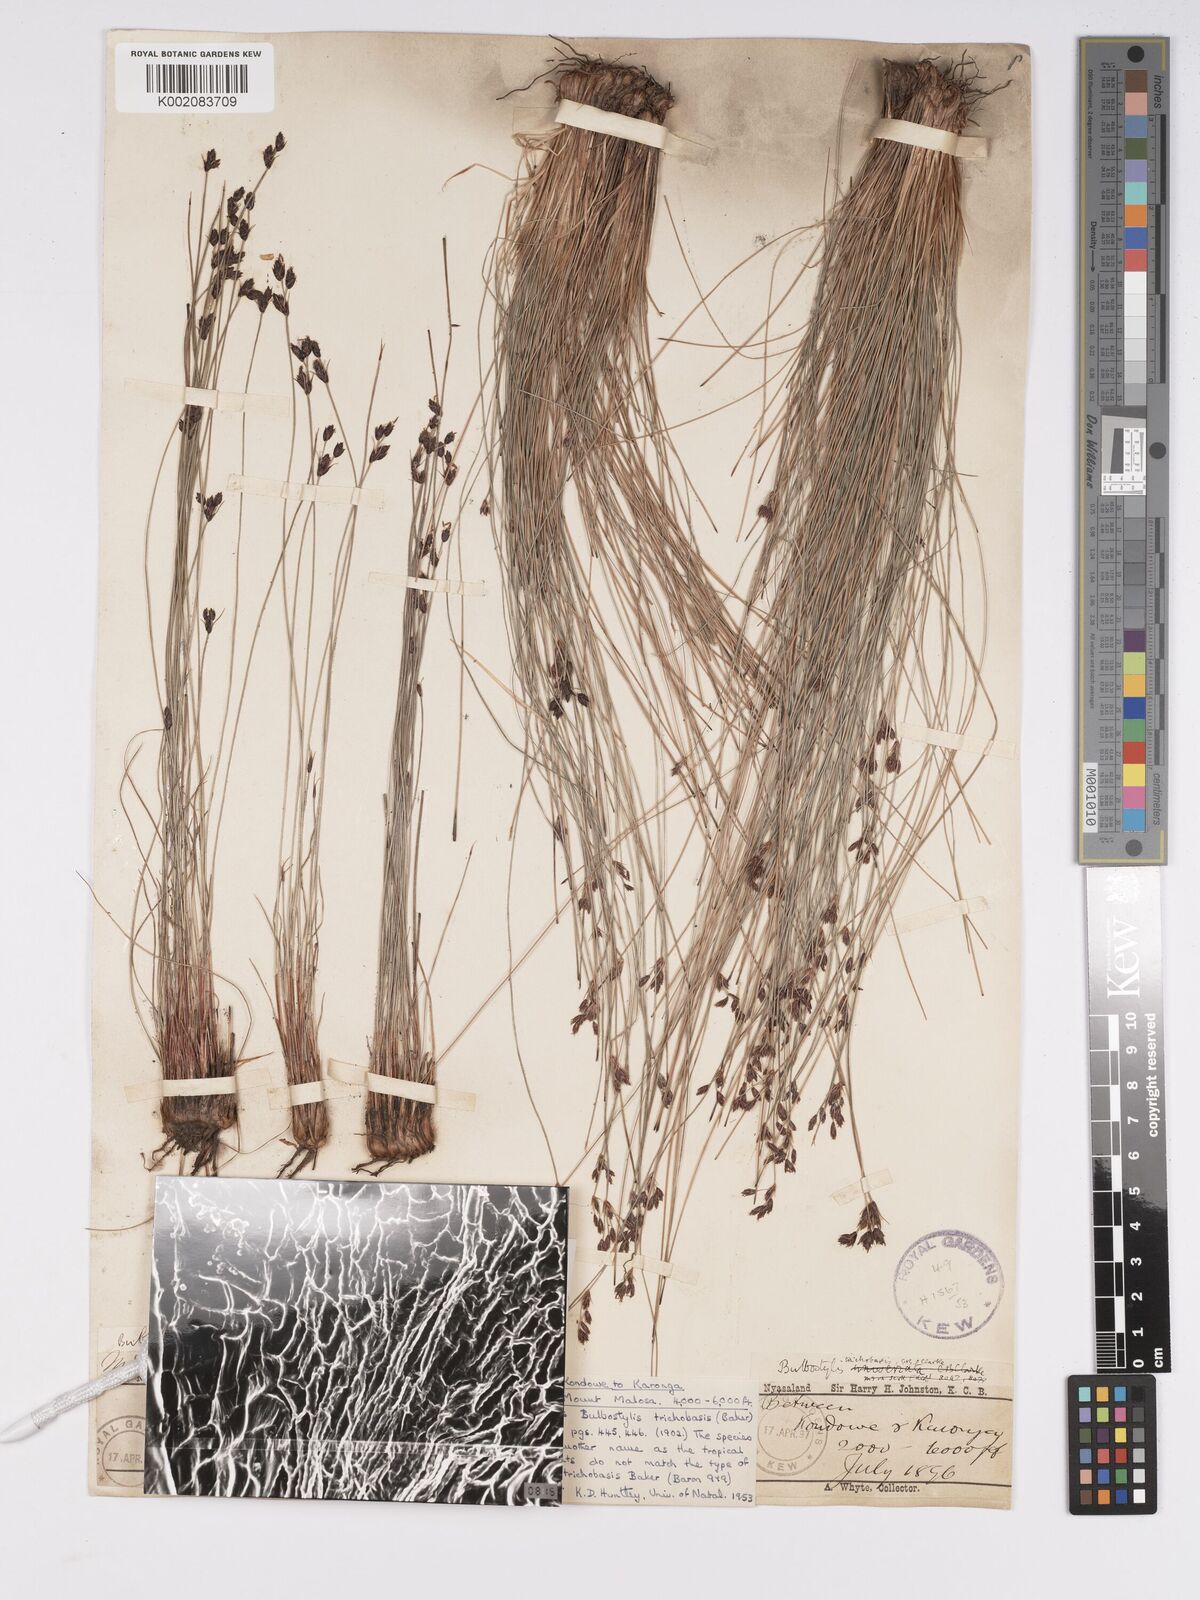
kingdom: Plantae
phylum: Tracheophyta
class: Liliopsida
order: Poales
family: Cyperaceae
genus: Bulbostylis
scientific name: Bulbostylis trichobasis
